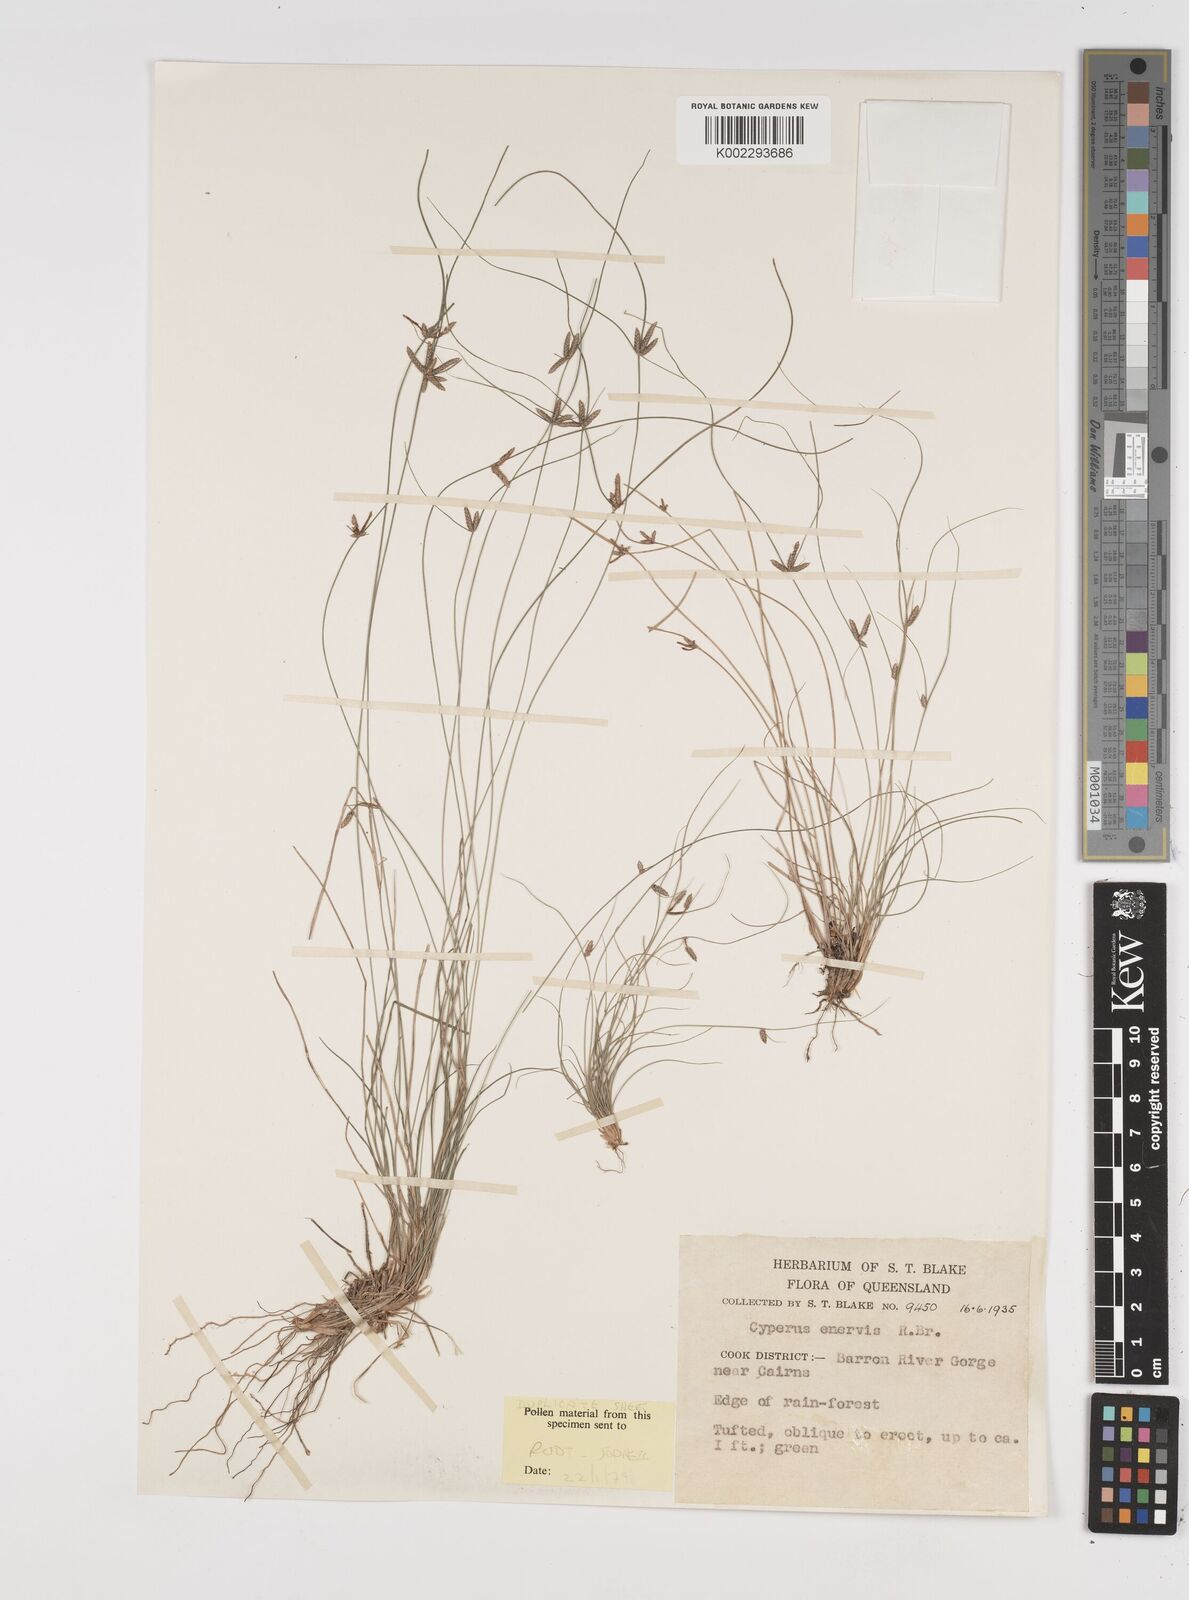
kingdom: Plantae
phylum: Tracheophyta
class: Liliopsida
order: Poales
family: Cyperaceae
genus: Cyperus
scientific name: Cyperus enervis
